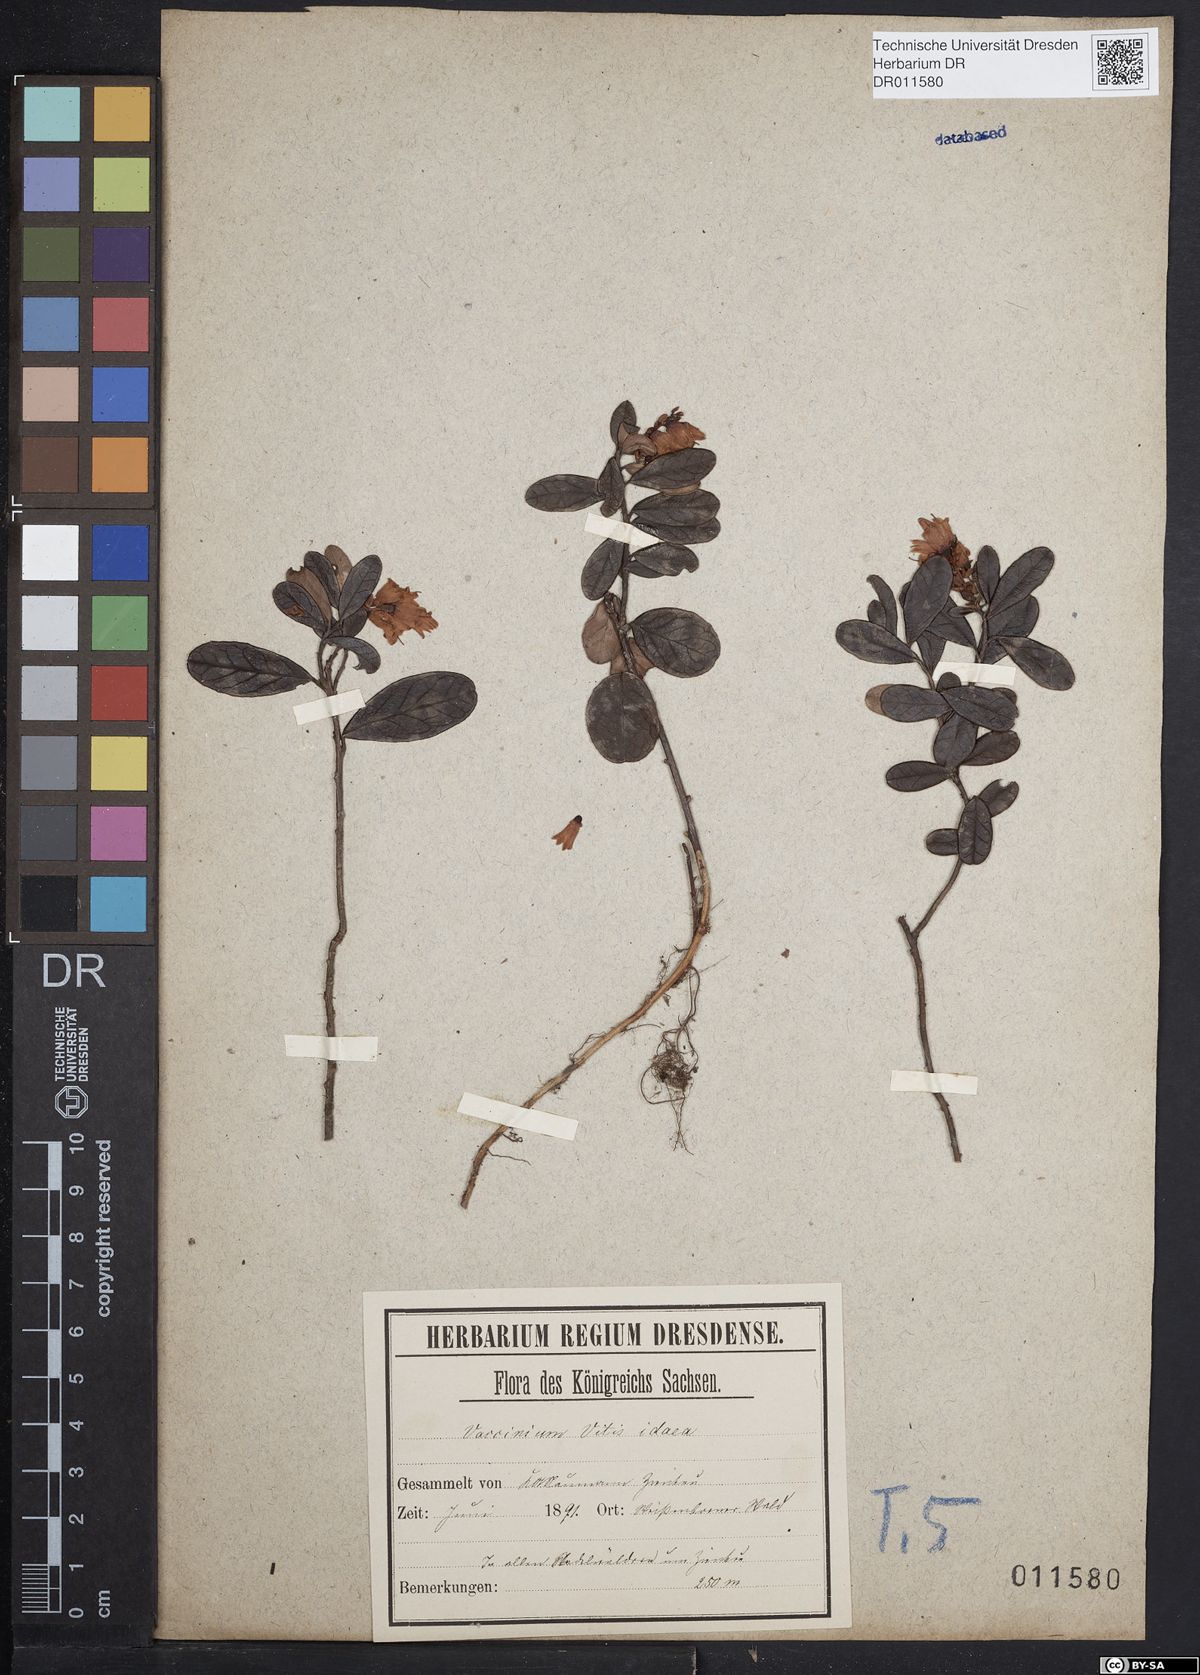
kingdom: Plantae
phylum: Tracheophyta
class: Magnoliopsida
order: Ericales
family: Ericaceae
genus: Vaccinium
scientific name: Vaccinium vitis-idaea
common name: Cowberry
